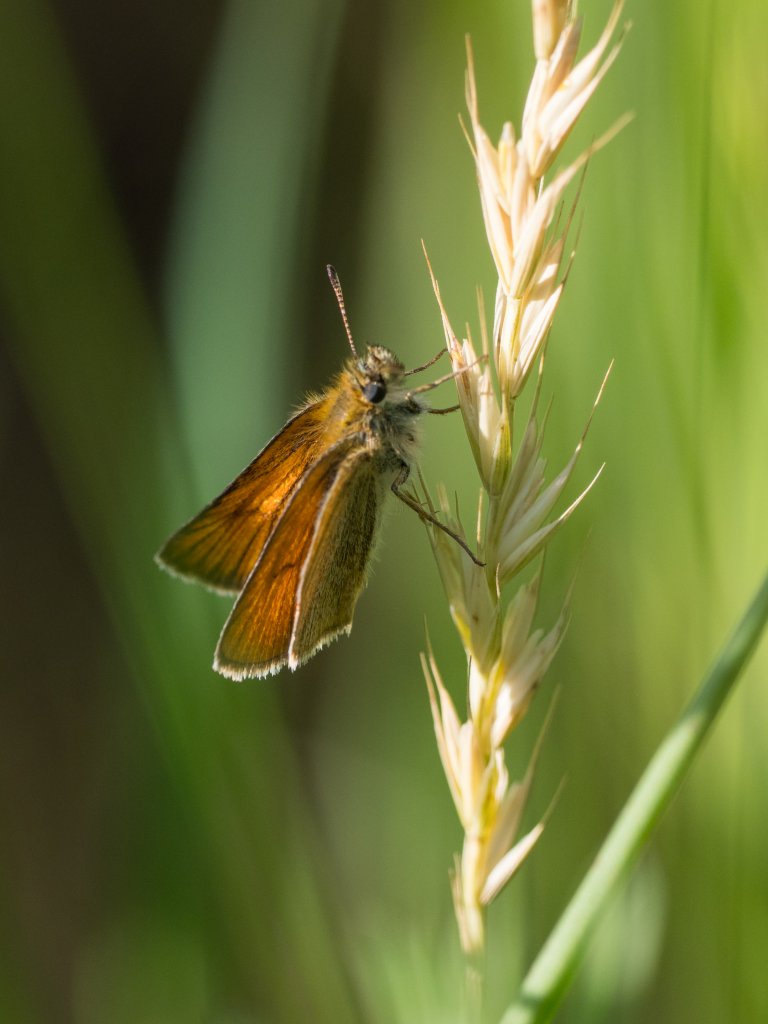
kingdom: Animalia
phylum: Arthropoda
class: Insecta
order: Lepidoptera
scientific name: Lepidoptera
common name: Butterflies
